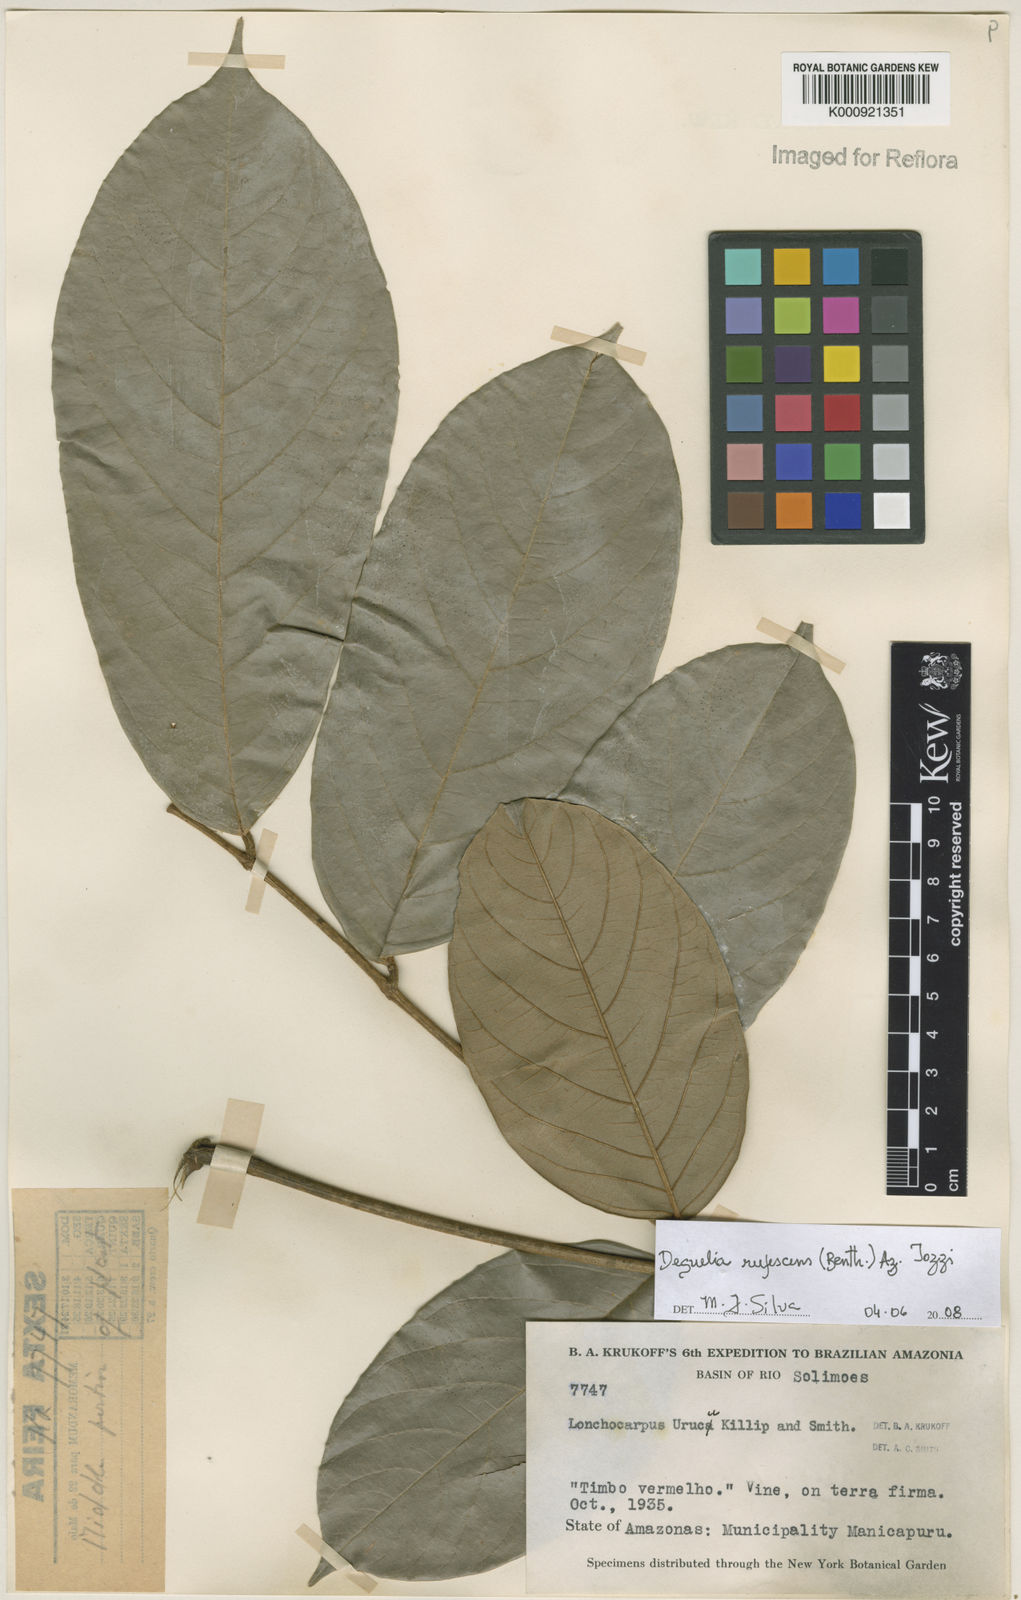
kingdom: Plantae
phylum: Tracheophyta
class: Magnoliopsida
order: Fabales
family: Fabaceae
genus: Deguelia
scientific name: Deguelia
